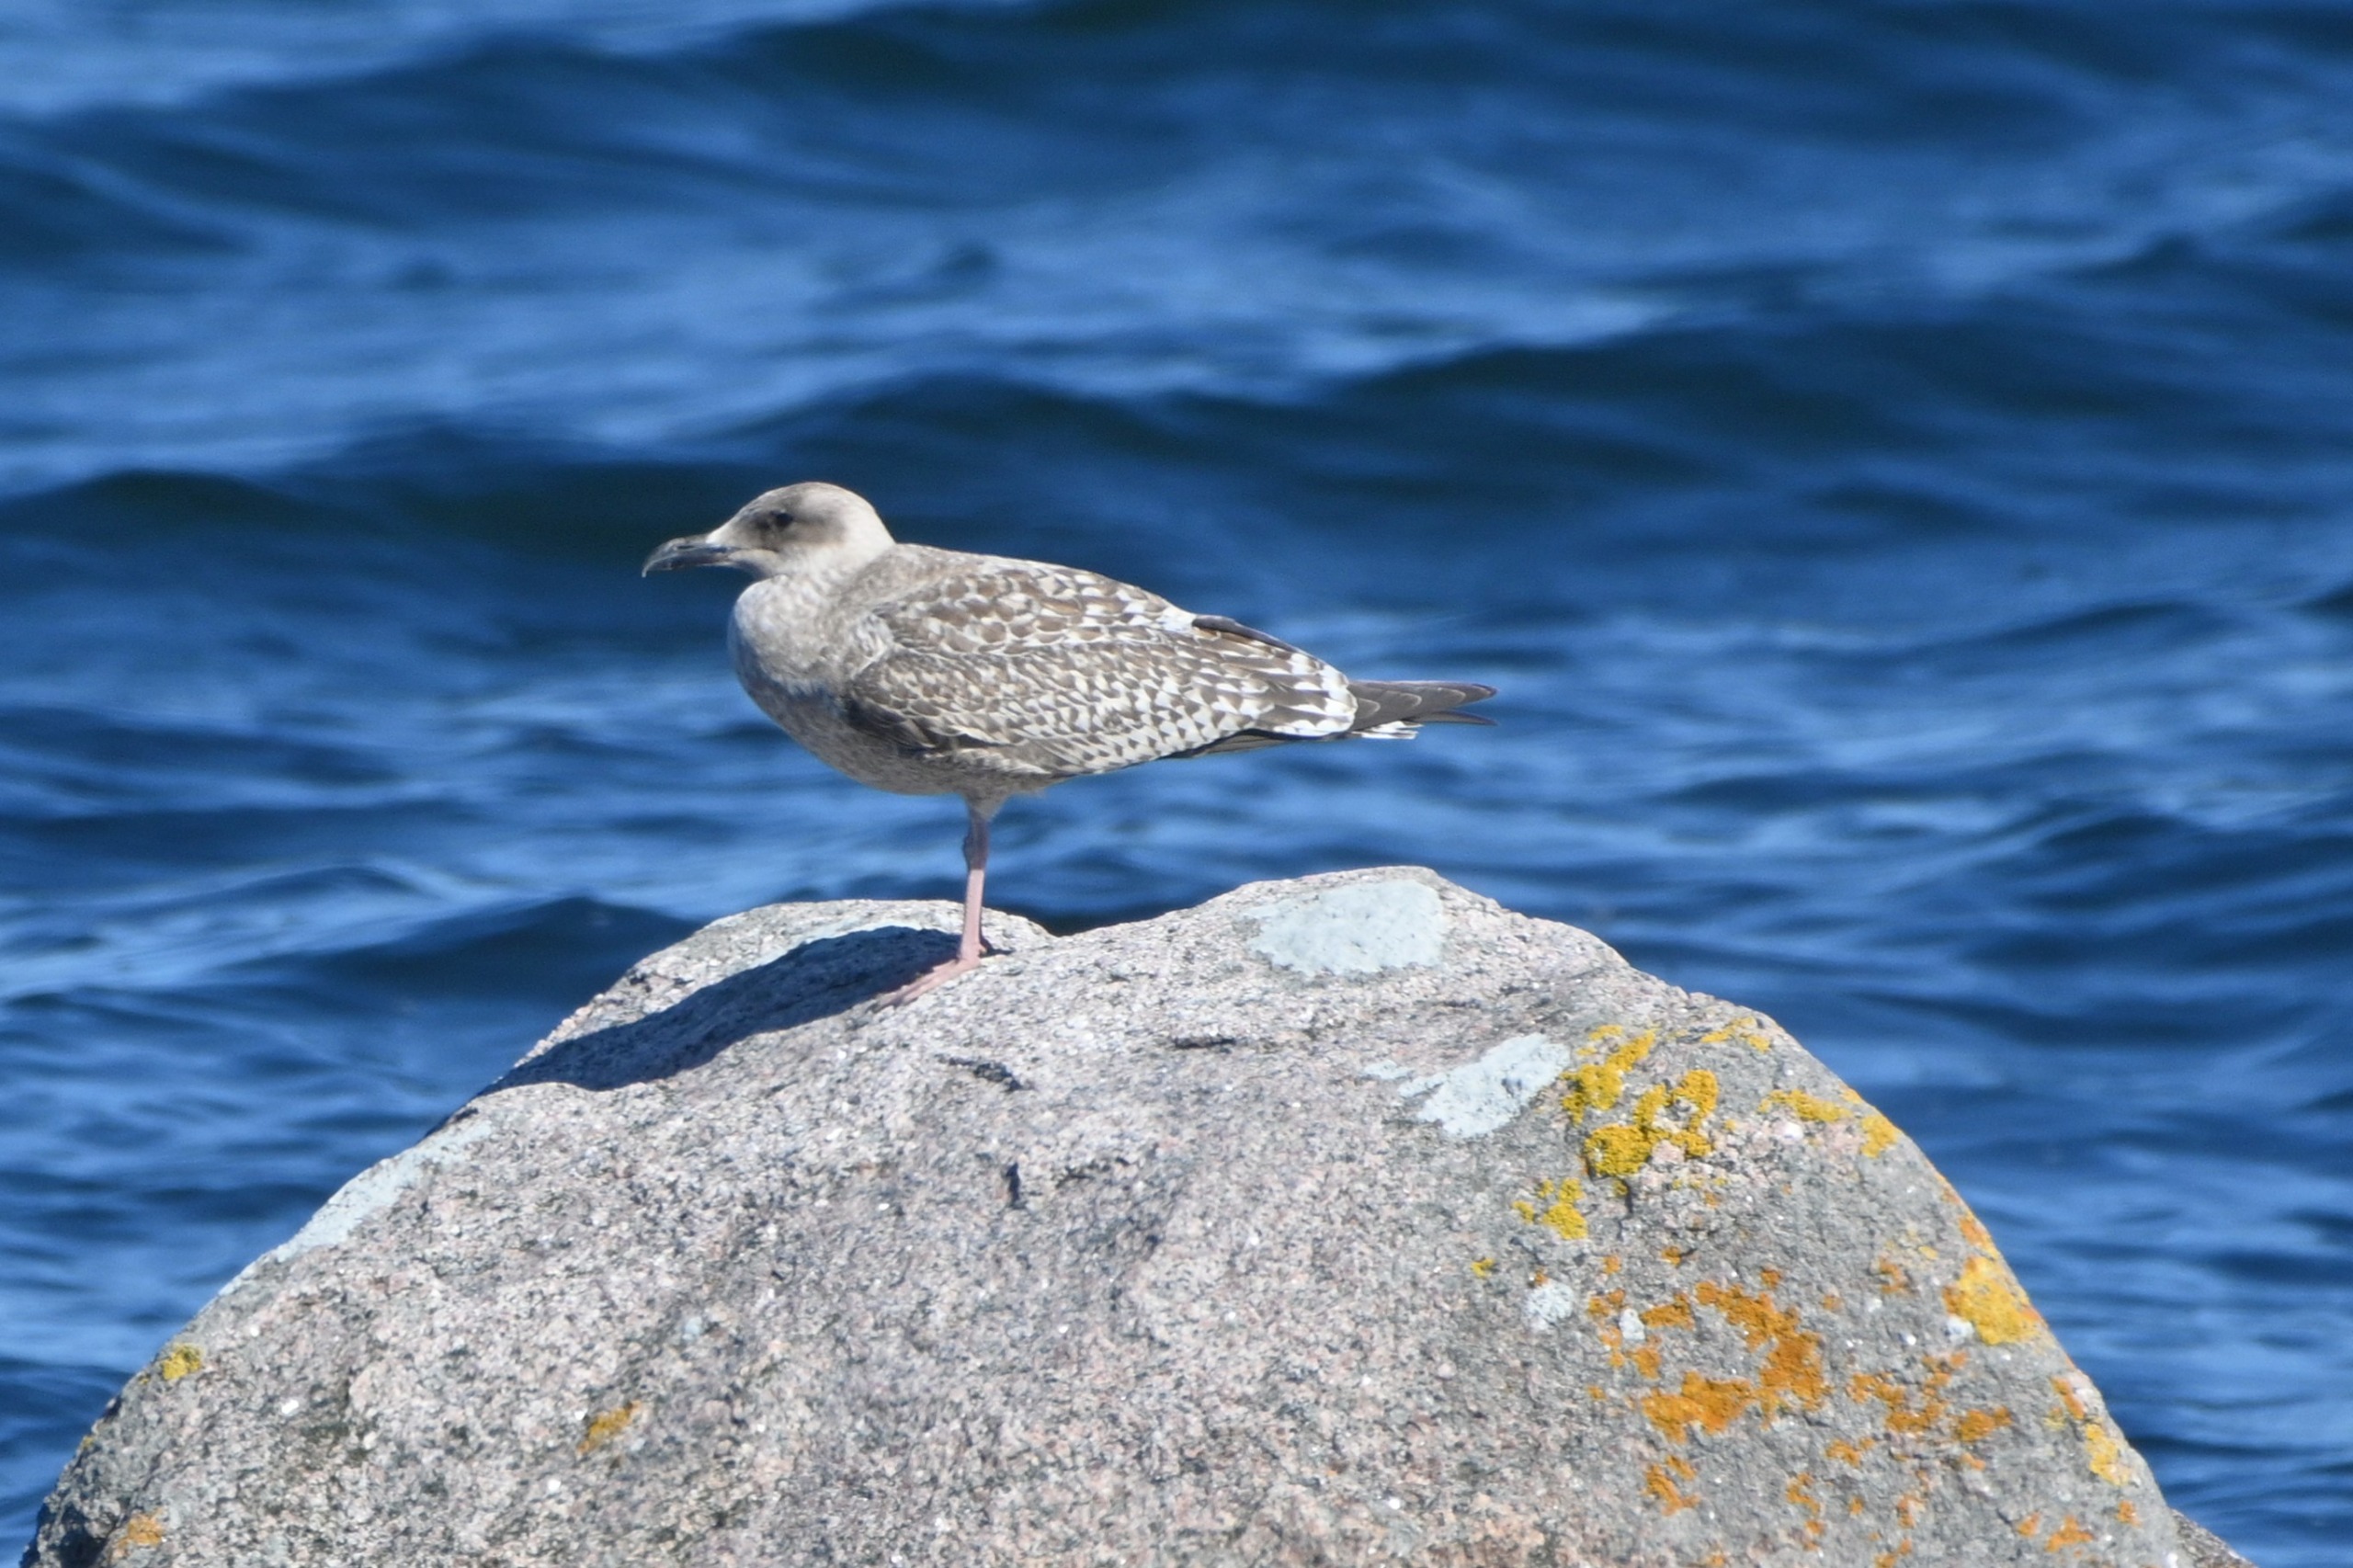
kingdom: Animalia
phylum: Chordata
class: Aves
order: Charadriiformes
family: Laridae
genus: Larus
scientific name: Larus argentatus
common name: Sølvmåge
